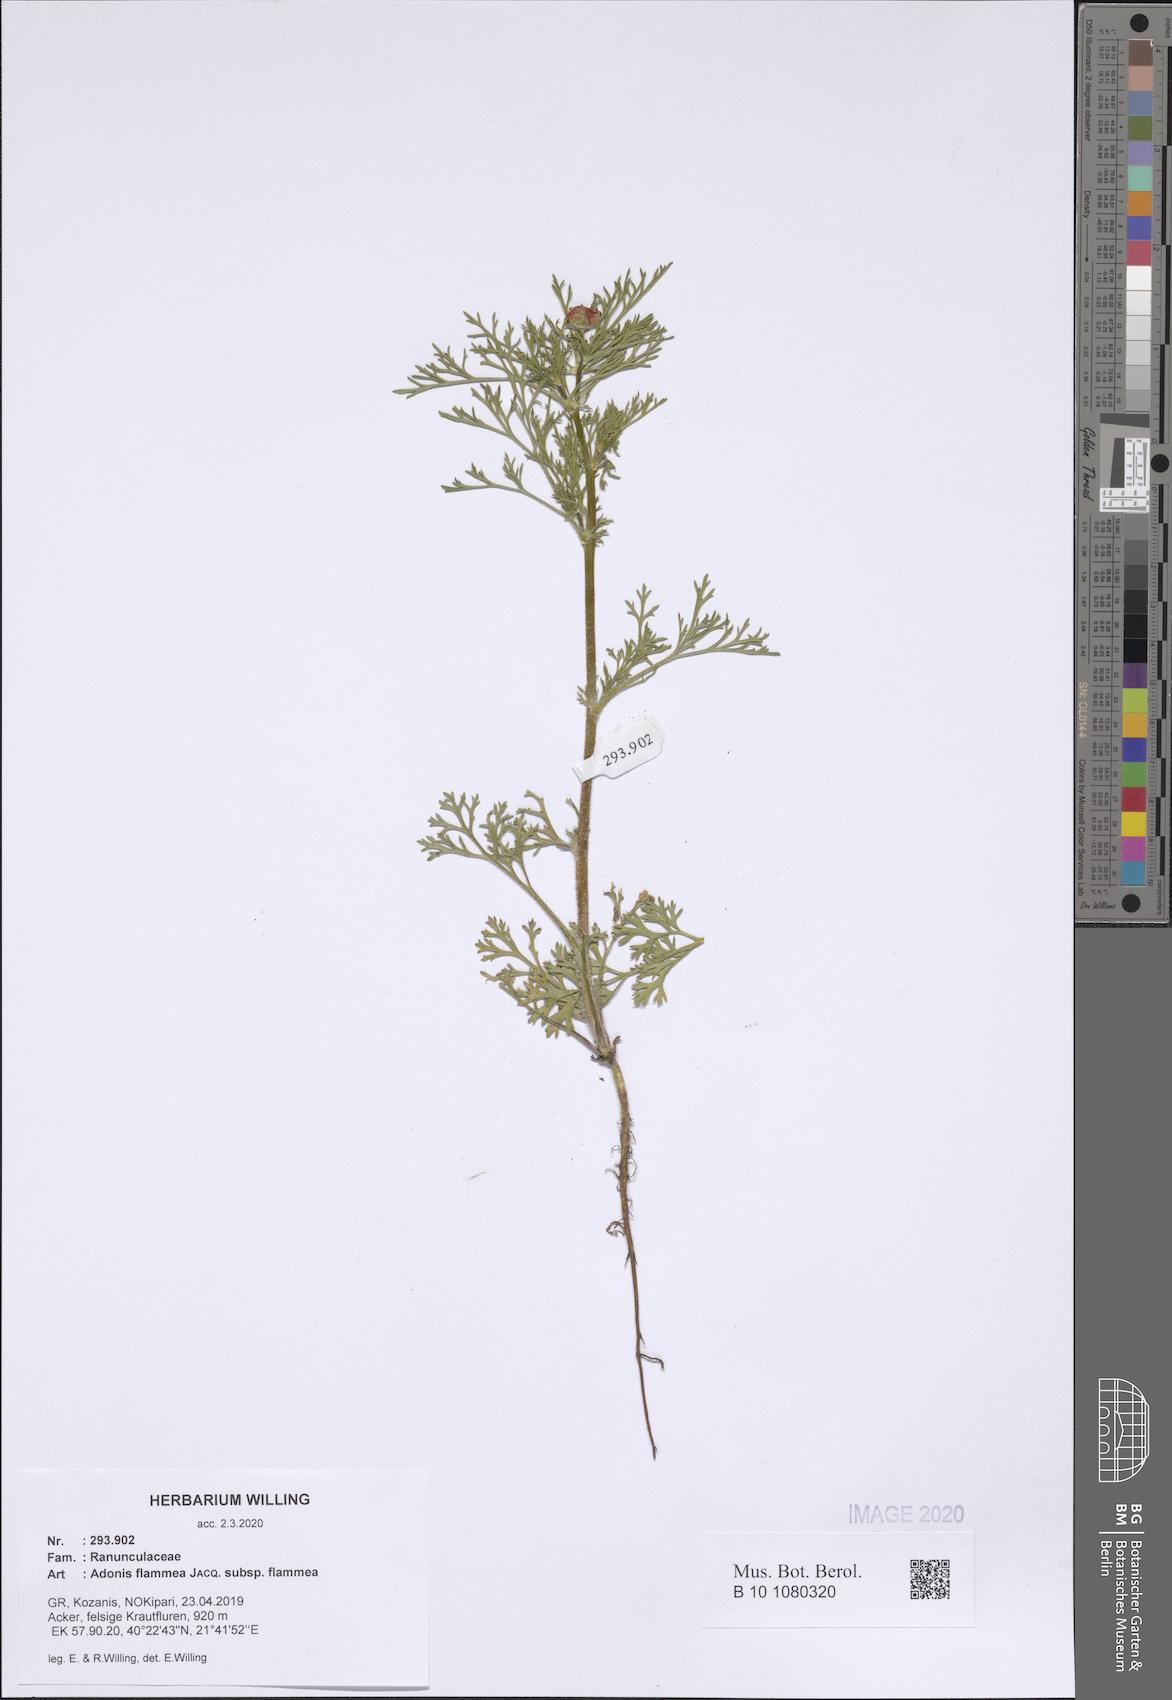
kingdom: Plantae
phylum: Tracheophyta
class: Magnoliopsida
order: Ranunculales
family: Ranunculaceae
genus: Adonis
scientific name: Adonis flammea
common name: Large pheasant's-eye
